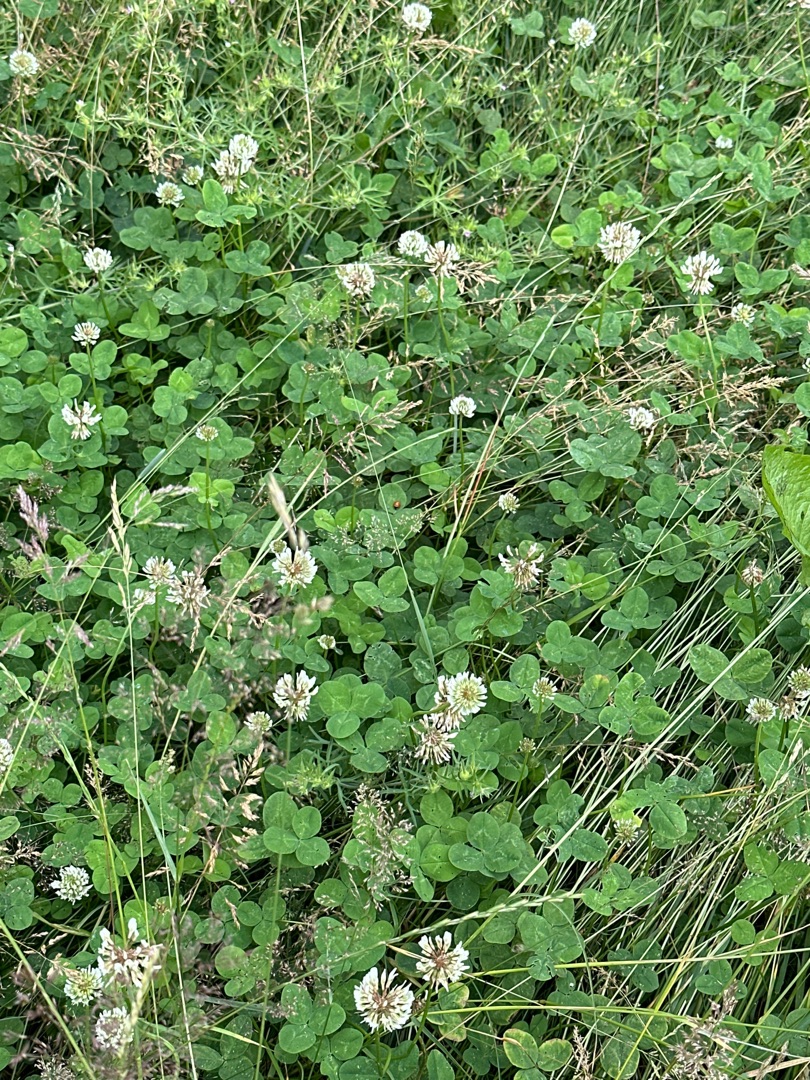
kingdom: Plantae
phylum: Tracheophyta
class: Magnoliopsida
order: Fabales
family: Fabaceae
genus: Trifolium
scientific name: Trifolium repens
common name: Hvid-kløver
